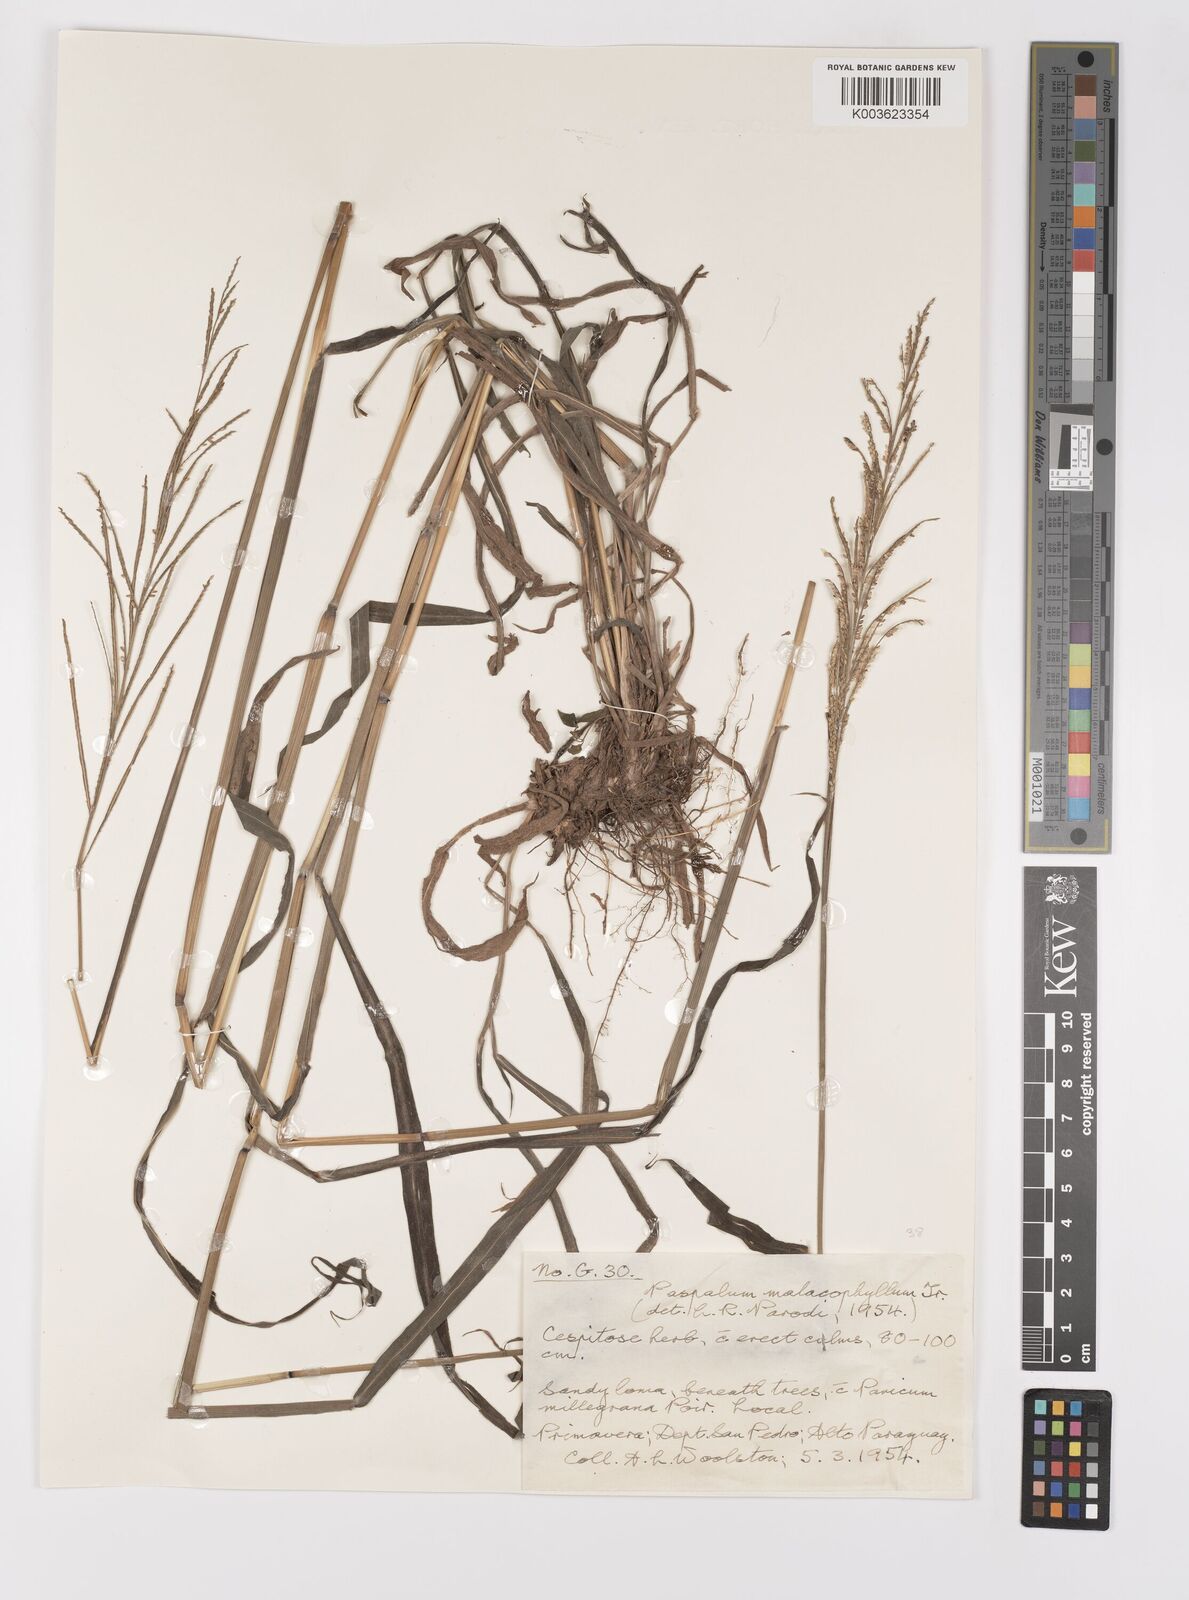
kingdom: Plantae
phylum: Tracheophyta
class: Liliopsida
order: Poales
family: Poaceae
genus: Paspalum
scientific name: Paspalum malacophyllum
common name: Ribbed paspalum
